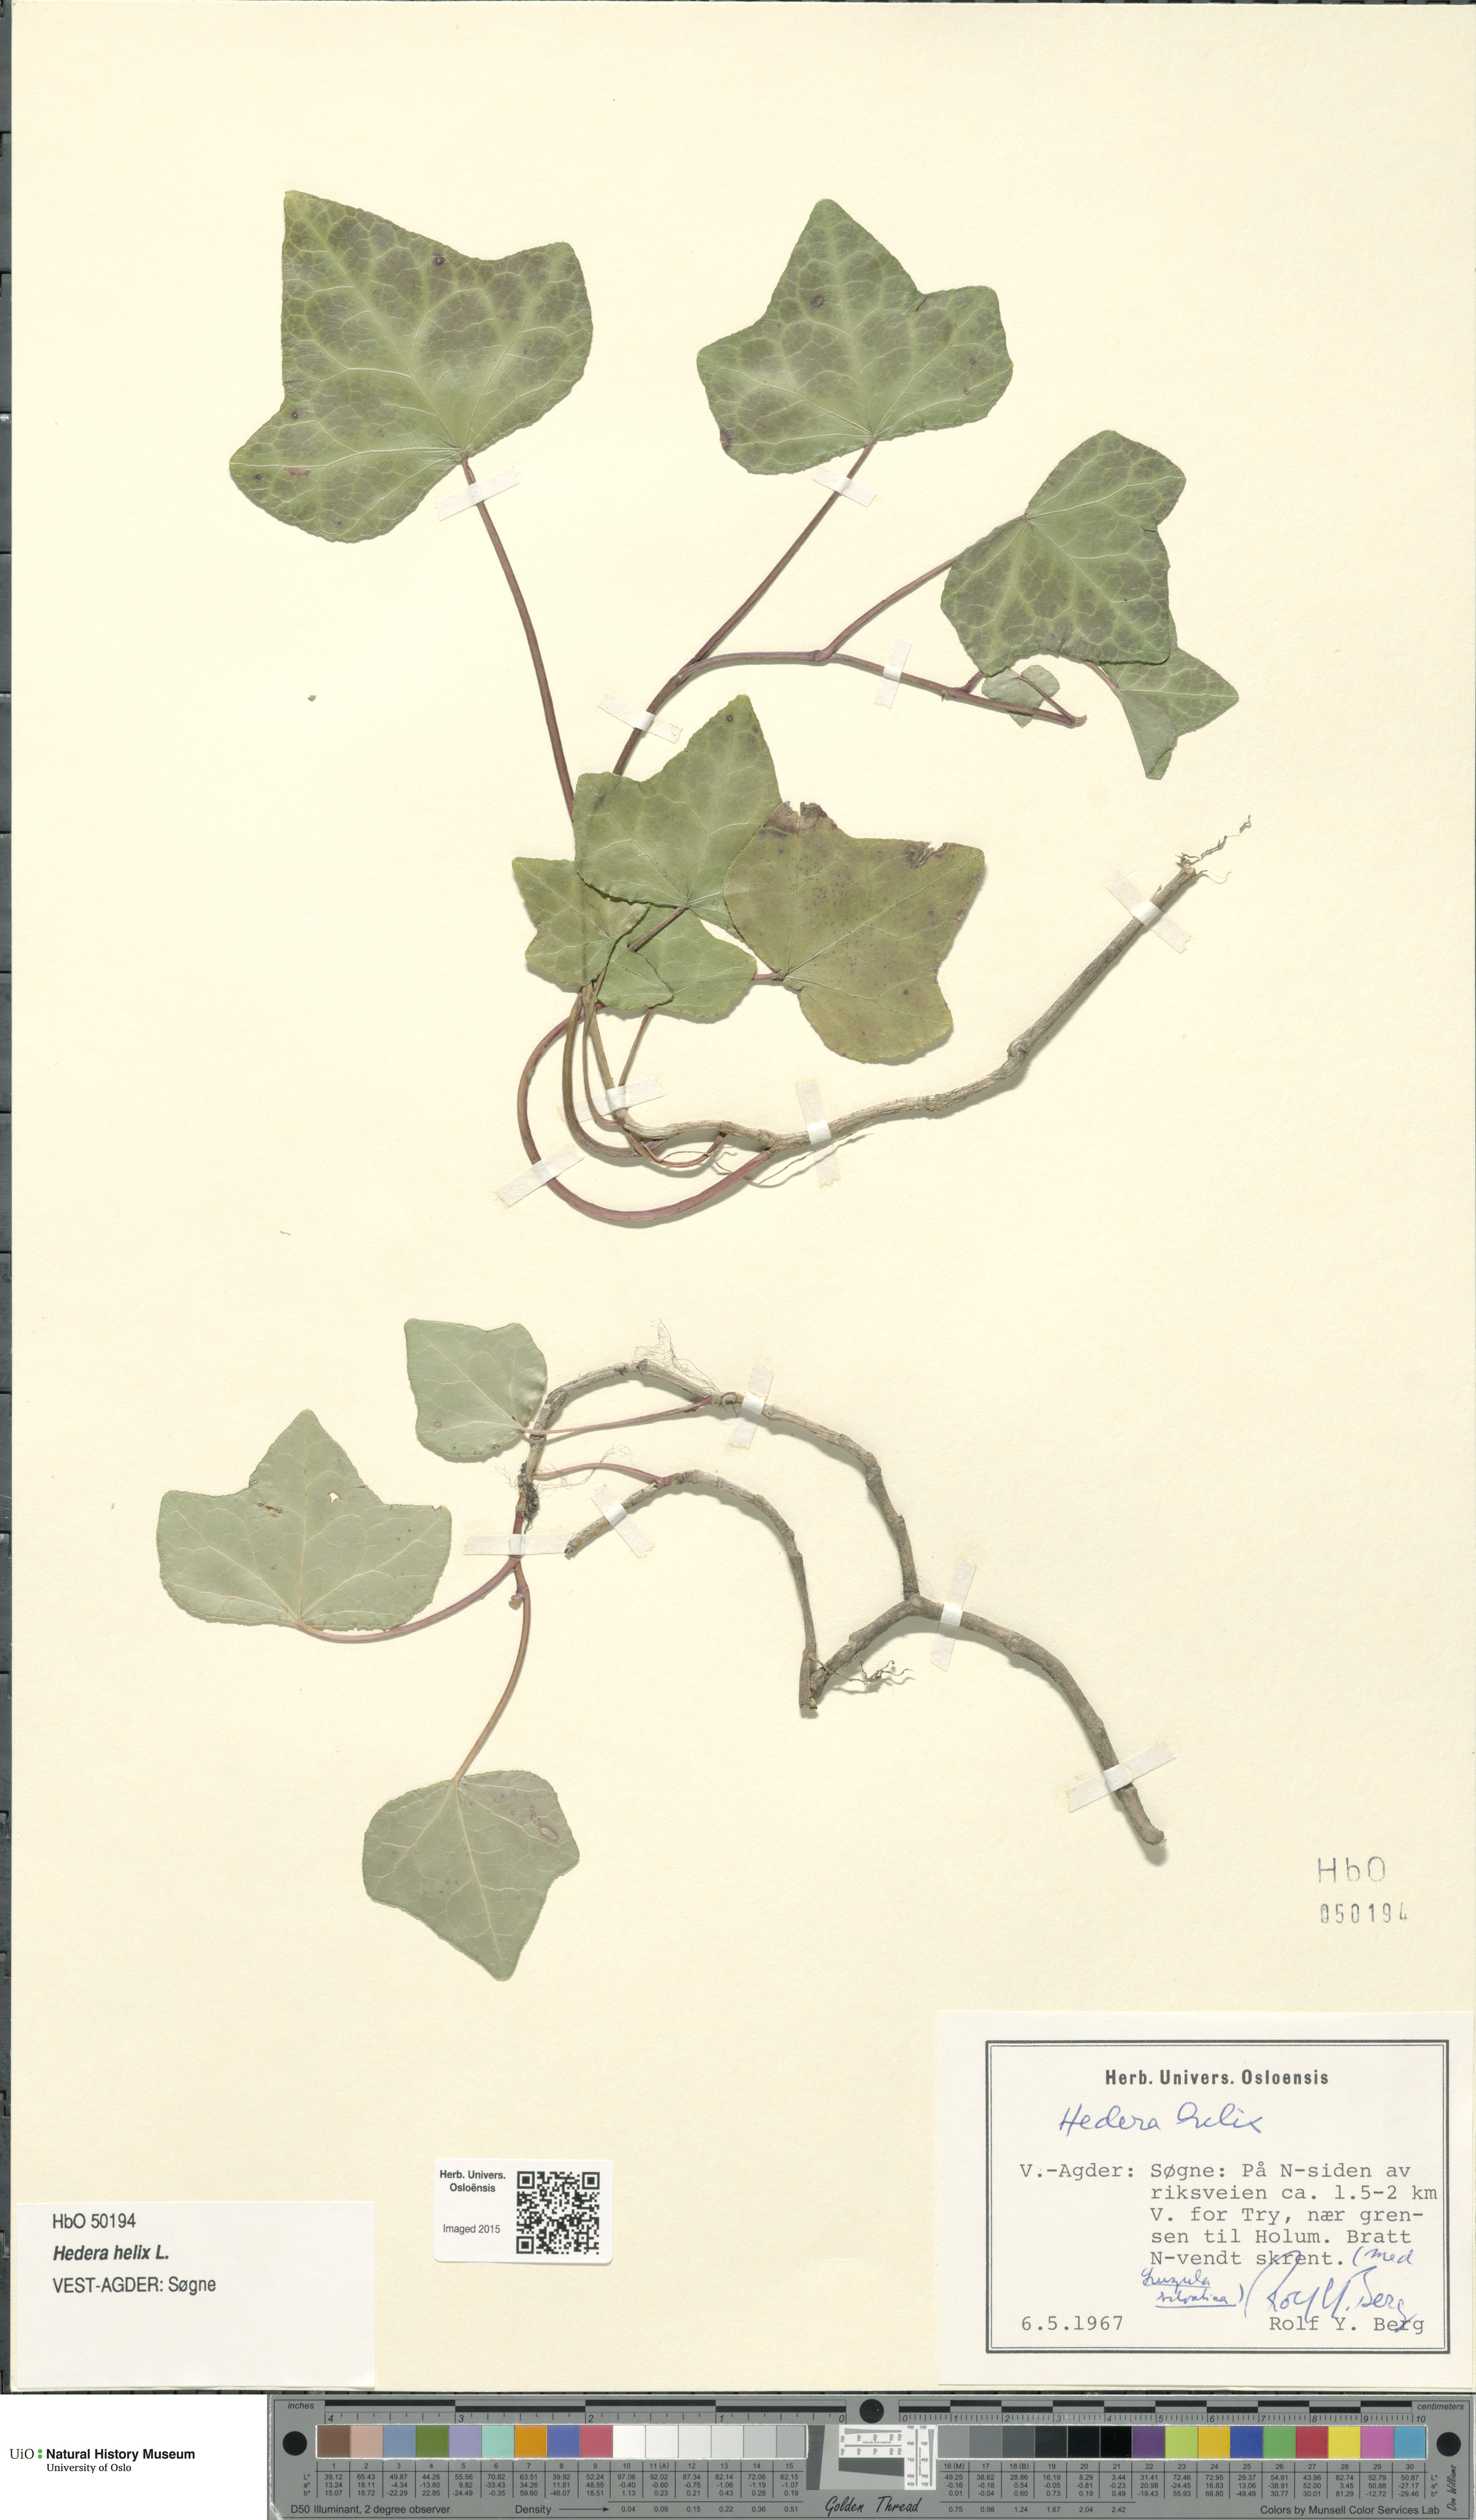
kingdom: Plantae
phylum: Tracheophyta
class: Magnoliopsida
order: Apiales
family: Araliaceae
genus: Hedera
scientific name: Hedera helix
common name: Ivy
